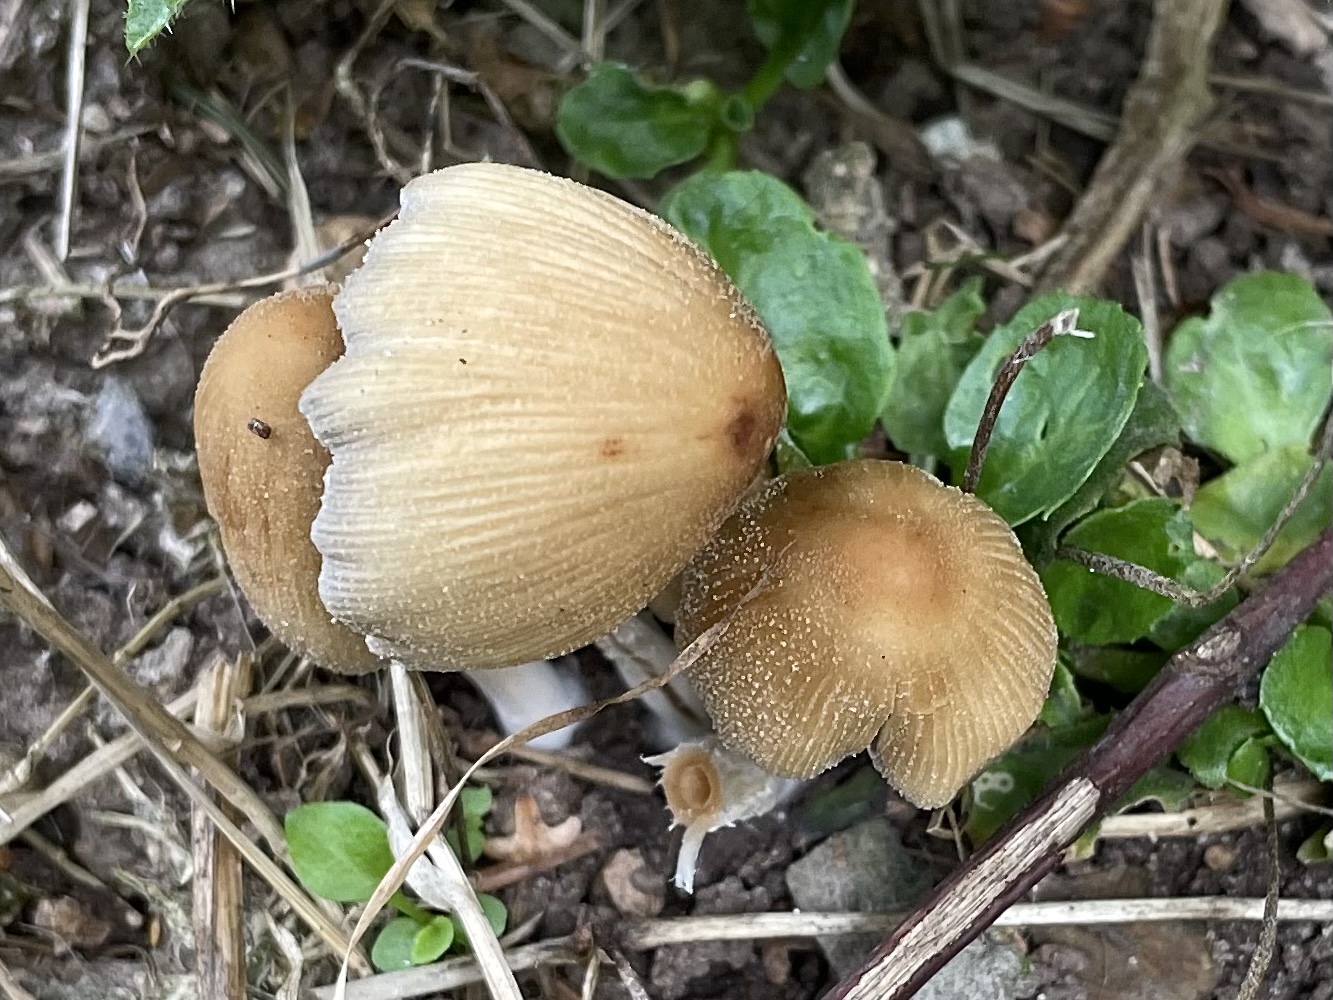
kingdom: Fungi
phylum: Basidiomycota
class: Agaricomycetes
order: Agaricales
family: Psathyrellaceae
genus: Coprinellus
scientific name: Coprinellus micaceus
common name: glimmer-blækhat
